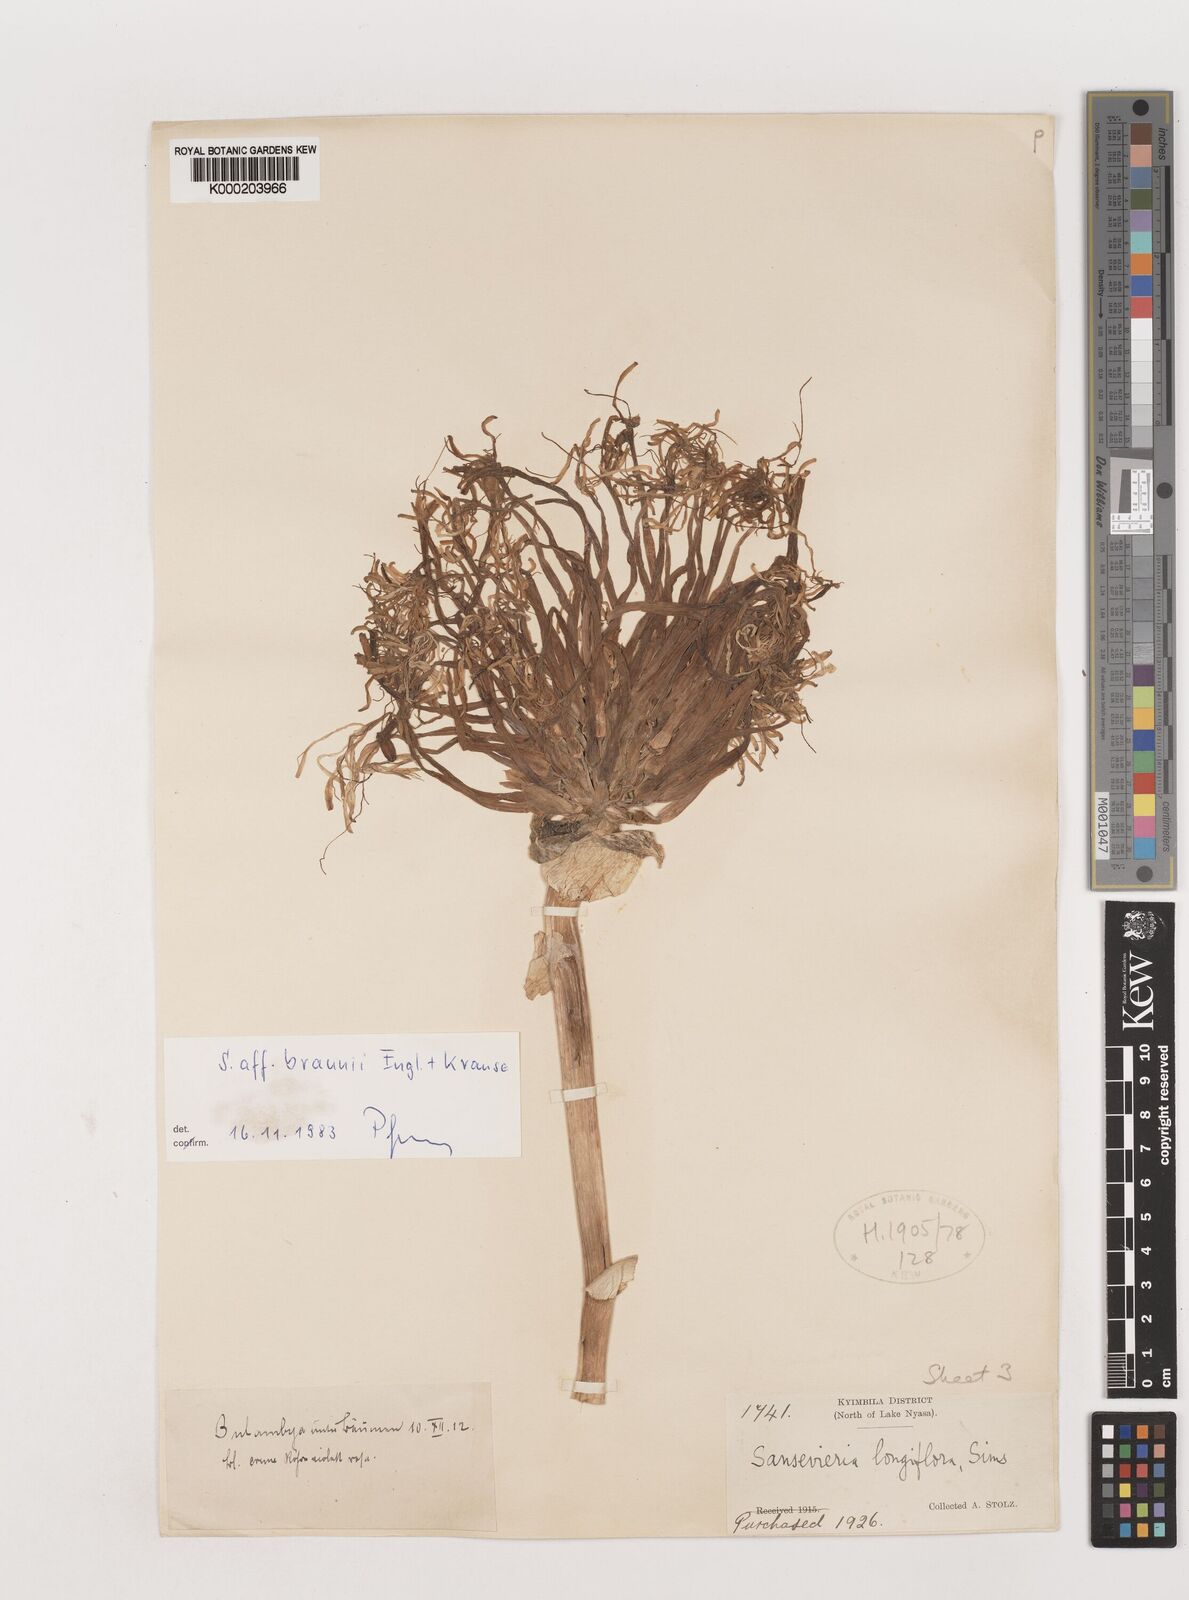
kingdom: Plantae
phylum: Tracheophyta
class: Liliopsida
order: Asparagales
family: Asparagaceae
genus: Dracaena
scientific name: Dracaena testudinea
